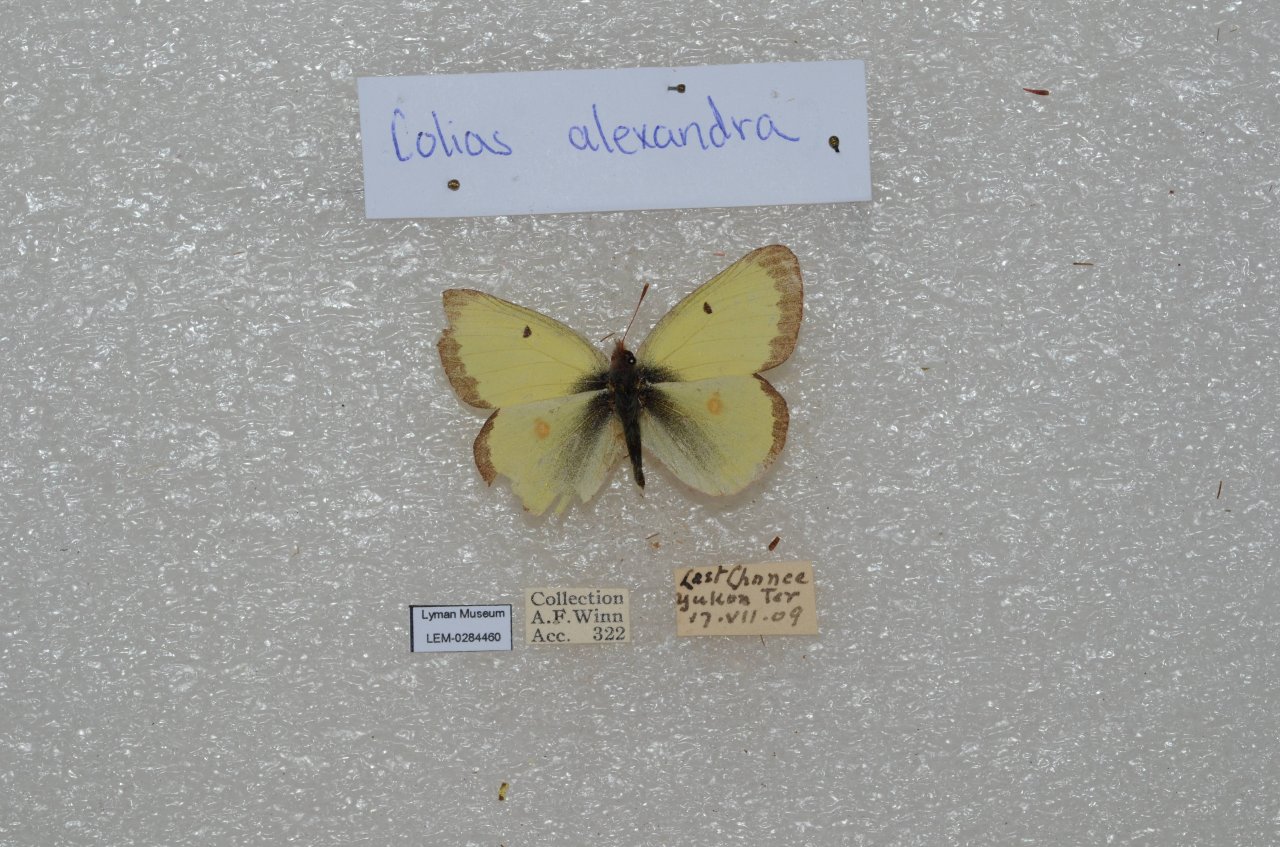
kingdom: Animalia
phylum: Arthropoda
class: Insecta
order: Lepidoptera
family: Pieridae
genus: Colias
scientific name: Colias
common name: Clouded Yellows
